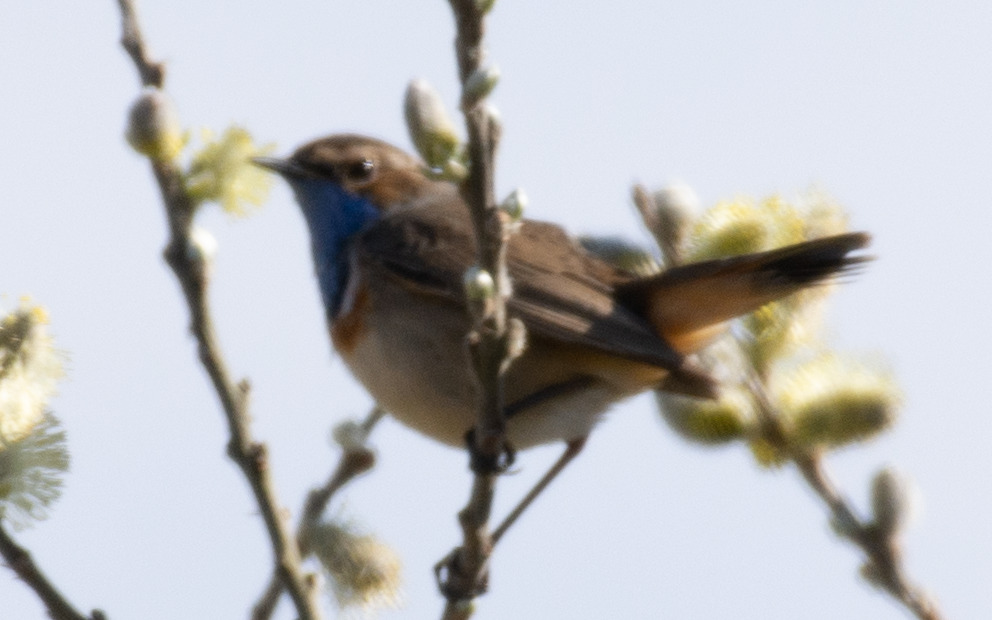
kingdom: Animalia
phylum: Chordata
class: Aves
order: Passeriformes
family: Muscicapidae
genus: Luscinia
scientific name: Luscinia svecica
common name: Blåhals
